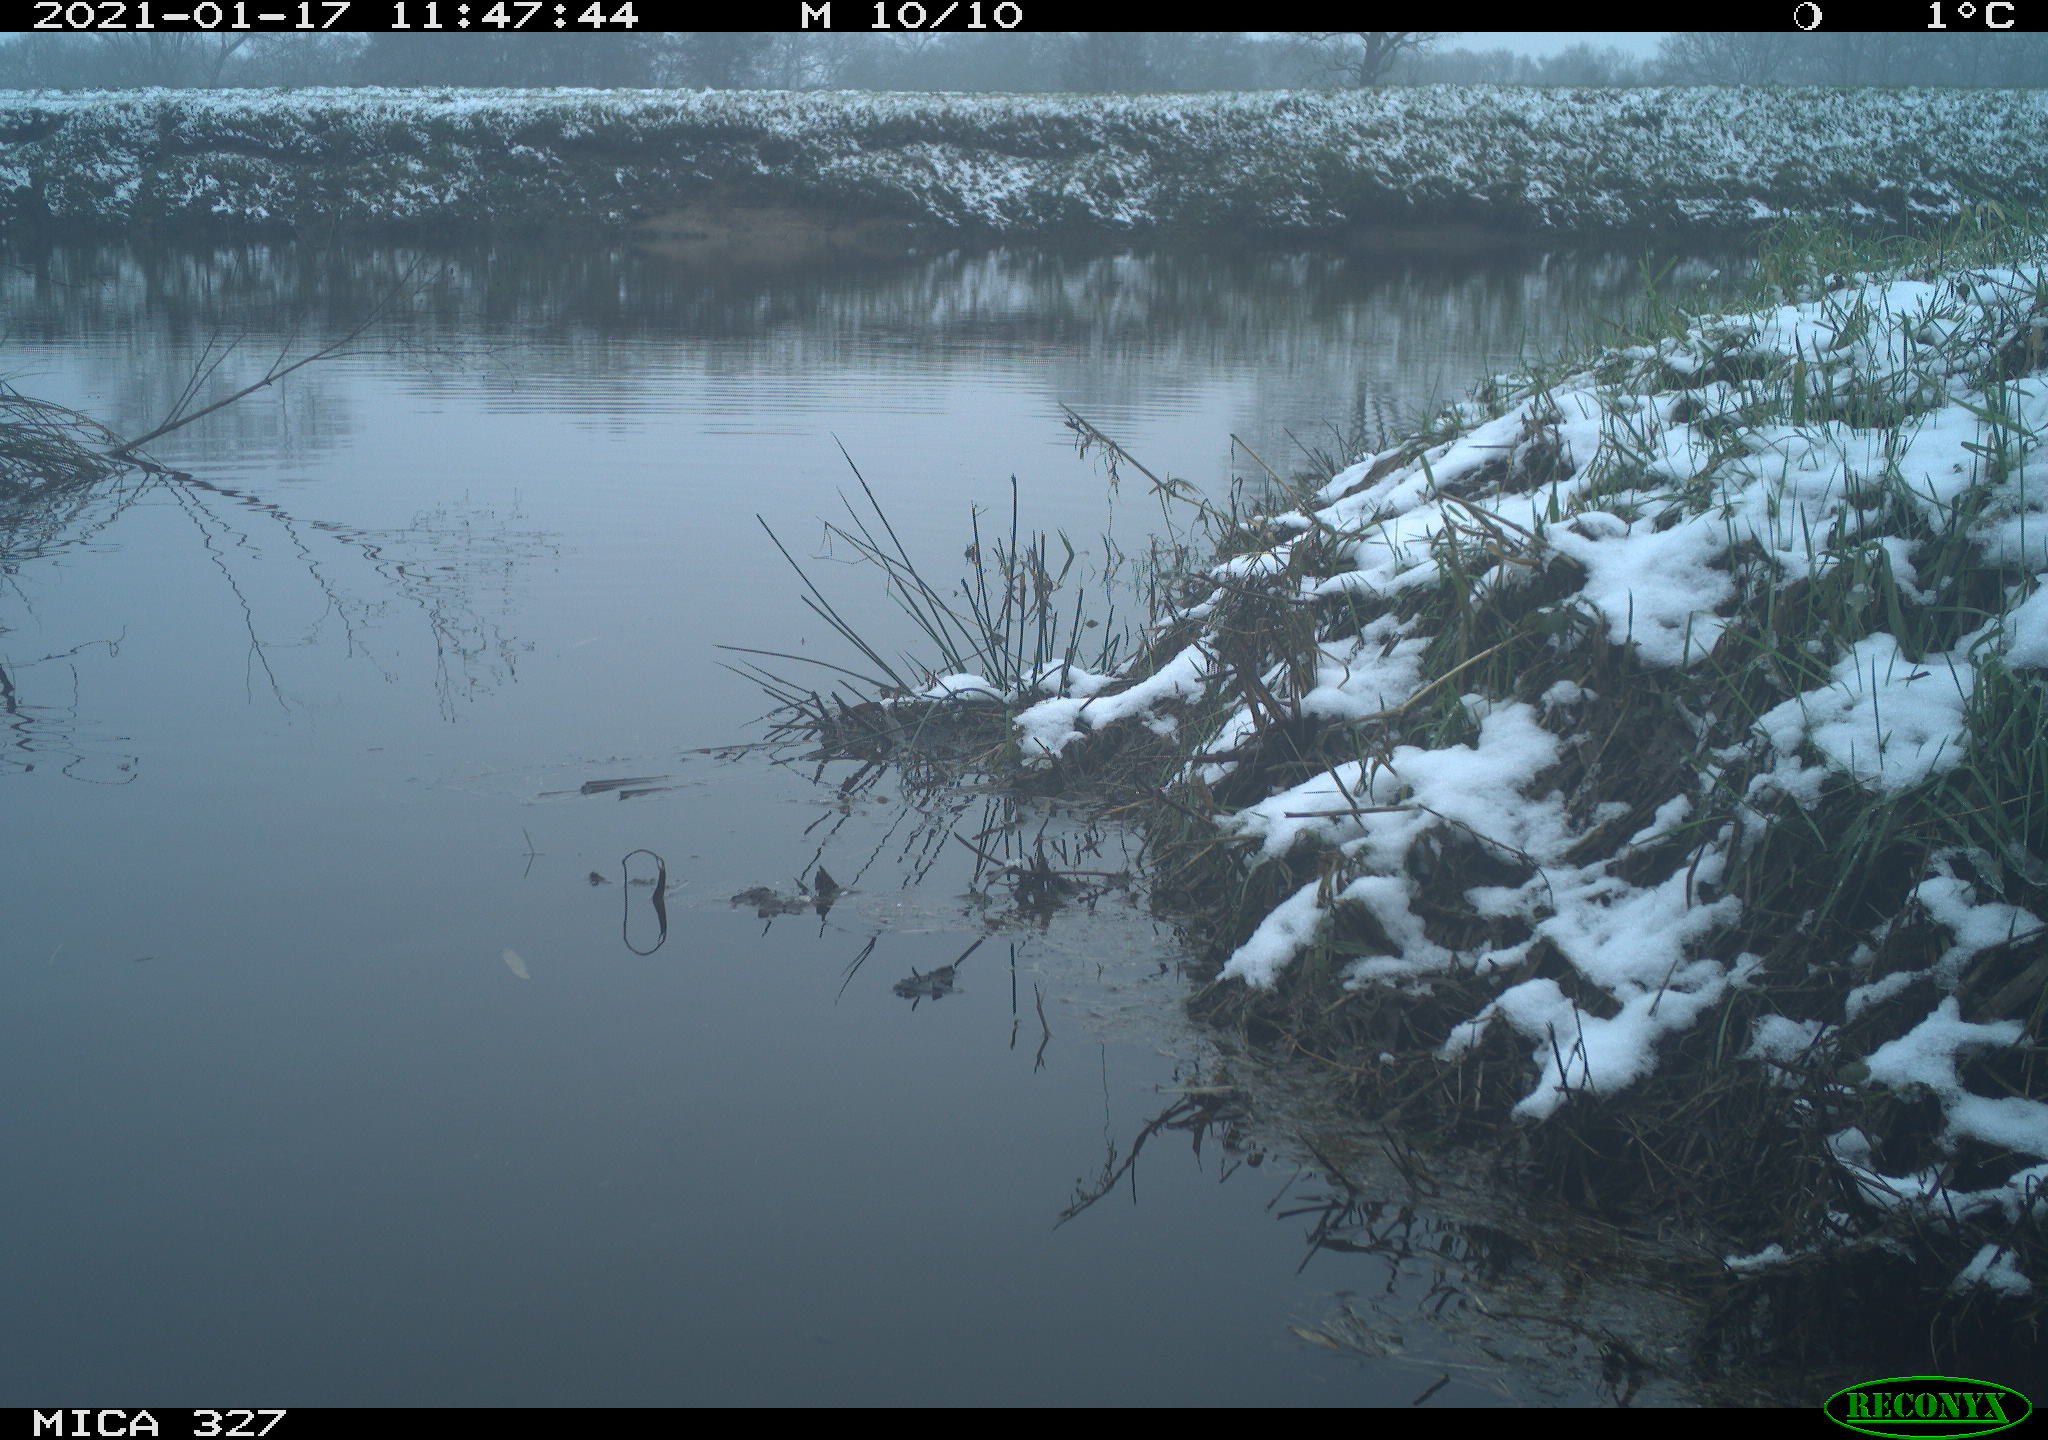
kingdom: Animalia
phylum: Chordata
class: Aves
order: Pelecaniformes
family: Ardeidae
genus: Ardea
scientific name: Ardea alba
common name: Great egret
